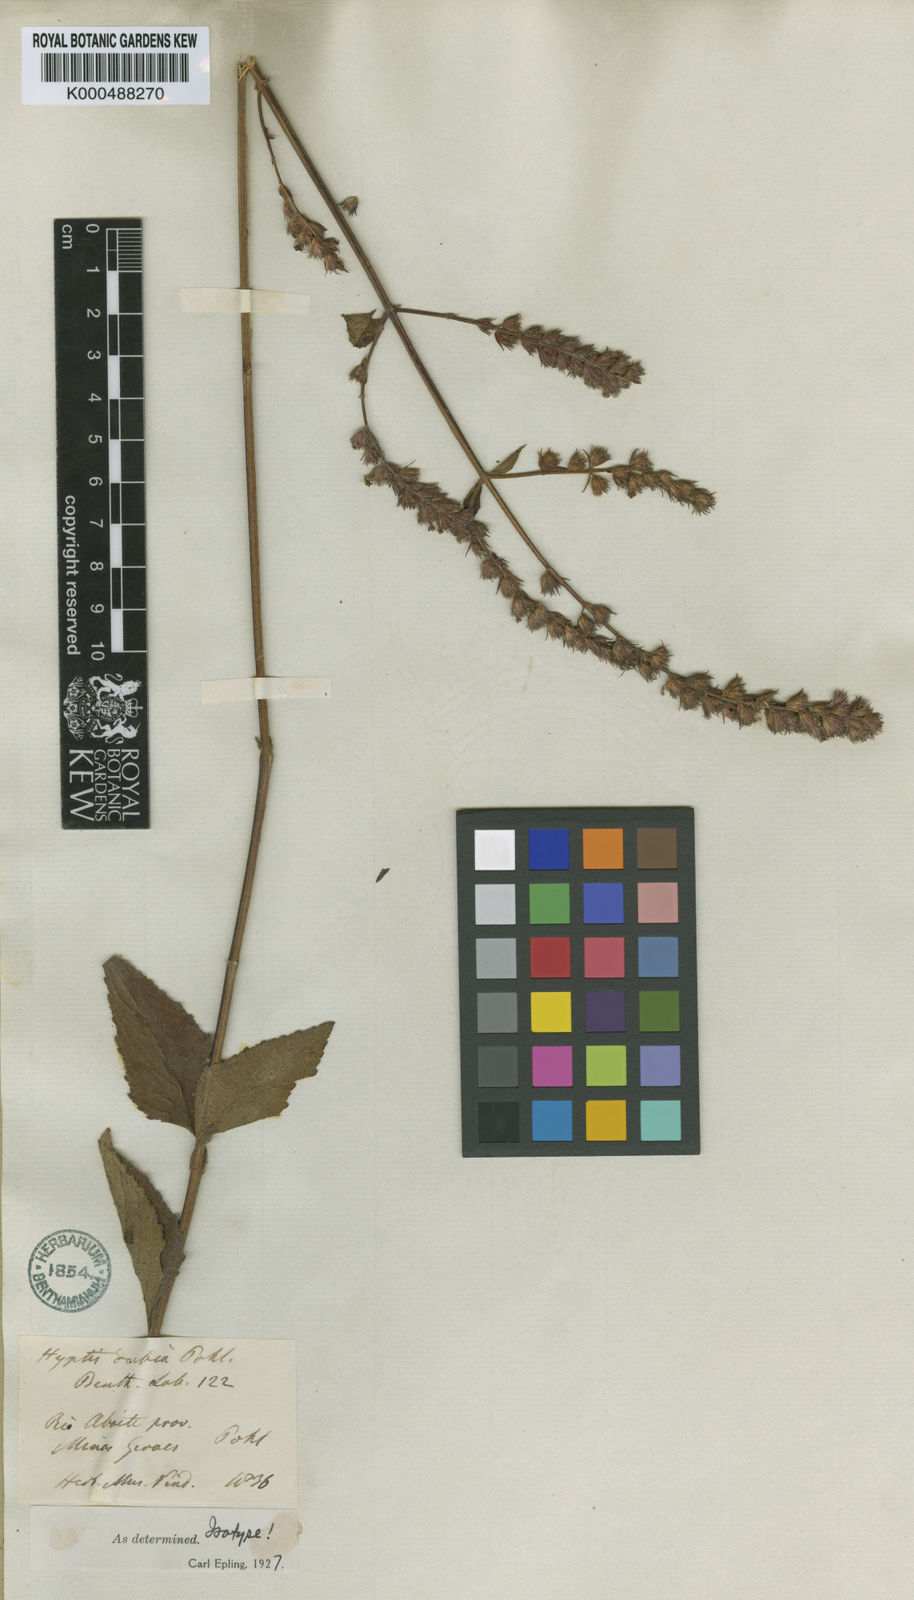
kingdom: Plantae
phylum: Tracheophyta
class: Magnoliopsida
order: Lamiales
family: Lamiaceae
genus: Cantinoa
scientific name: Cantinoa dubia
